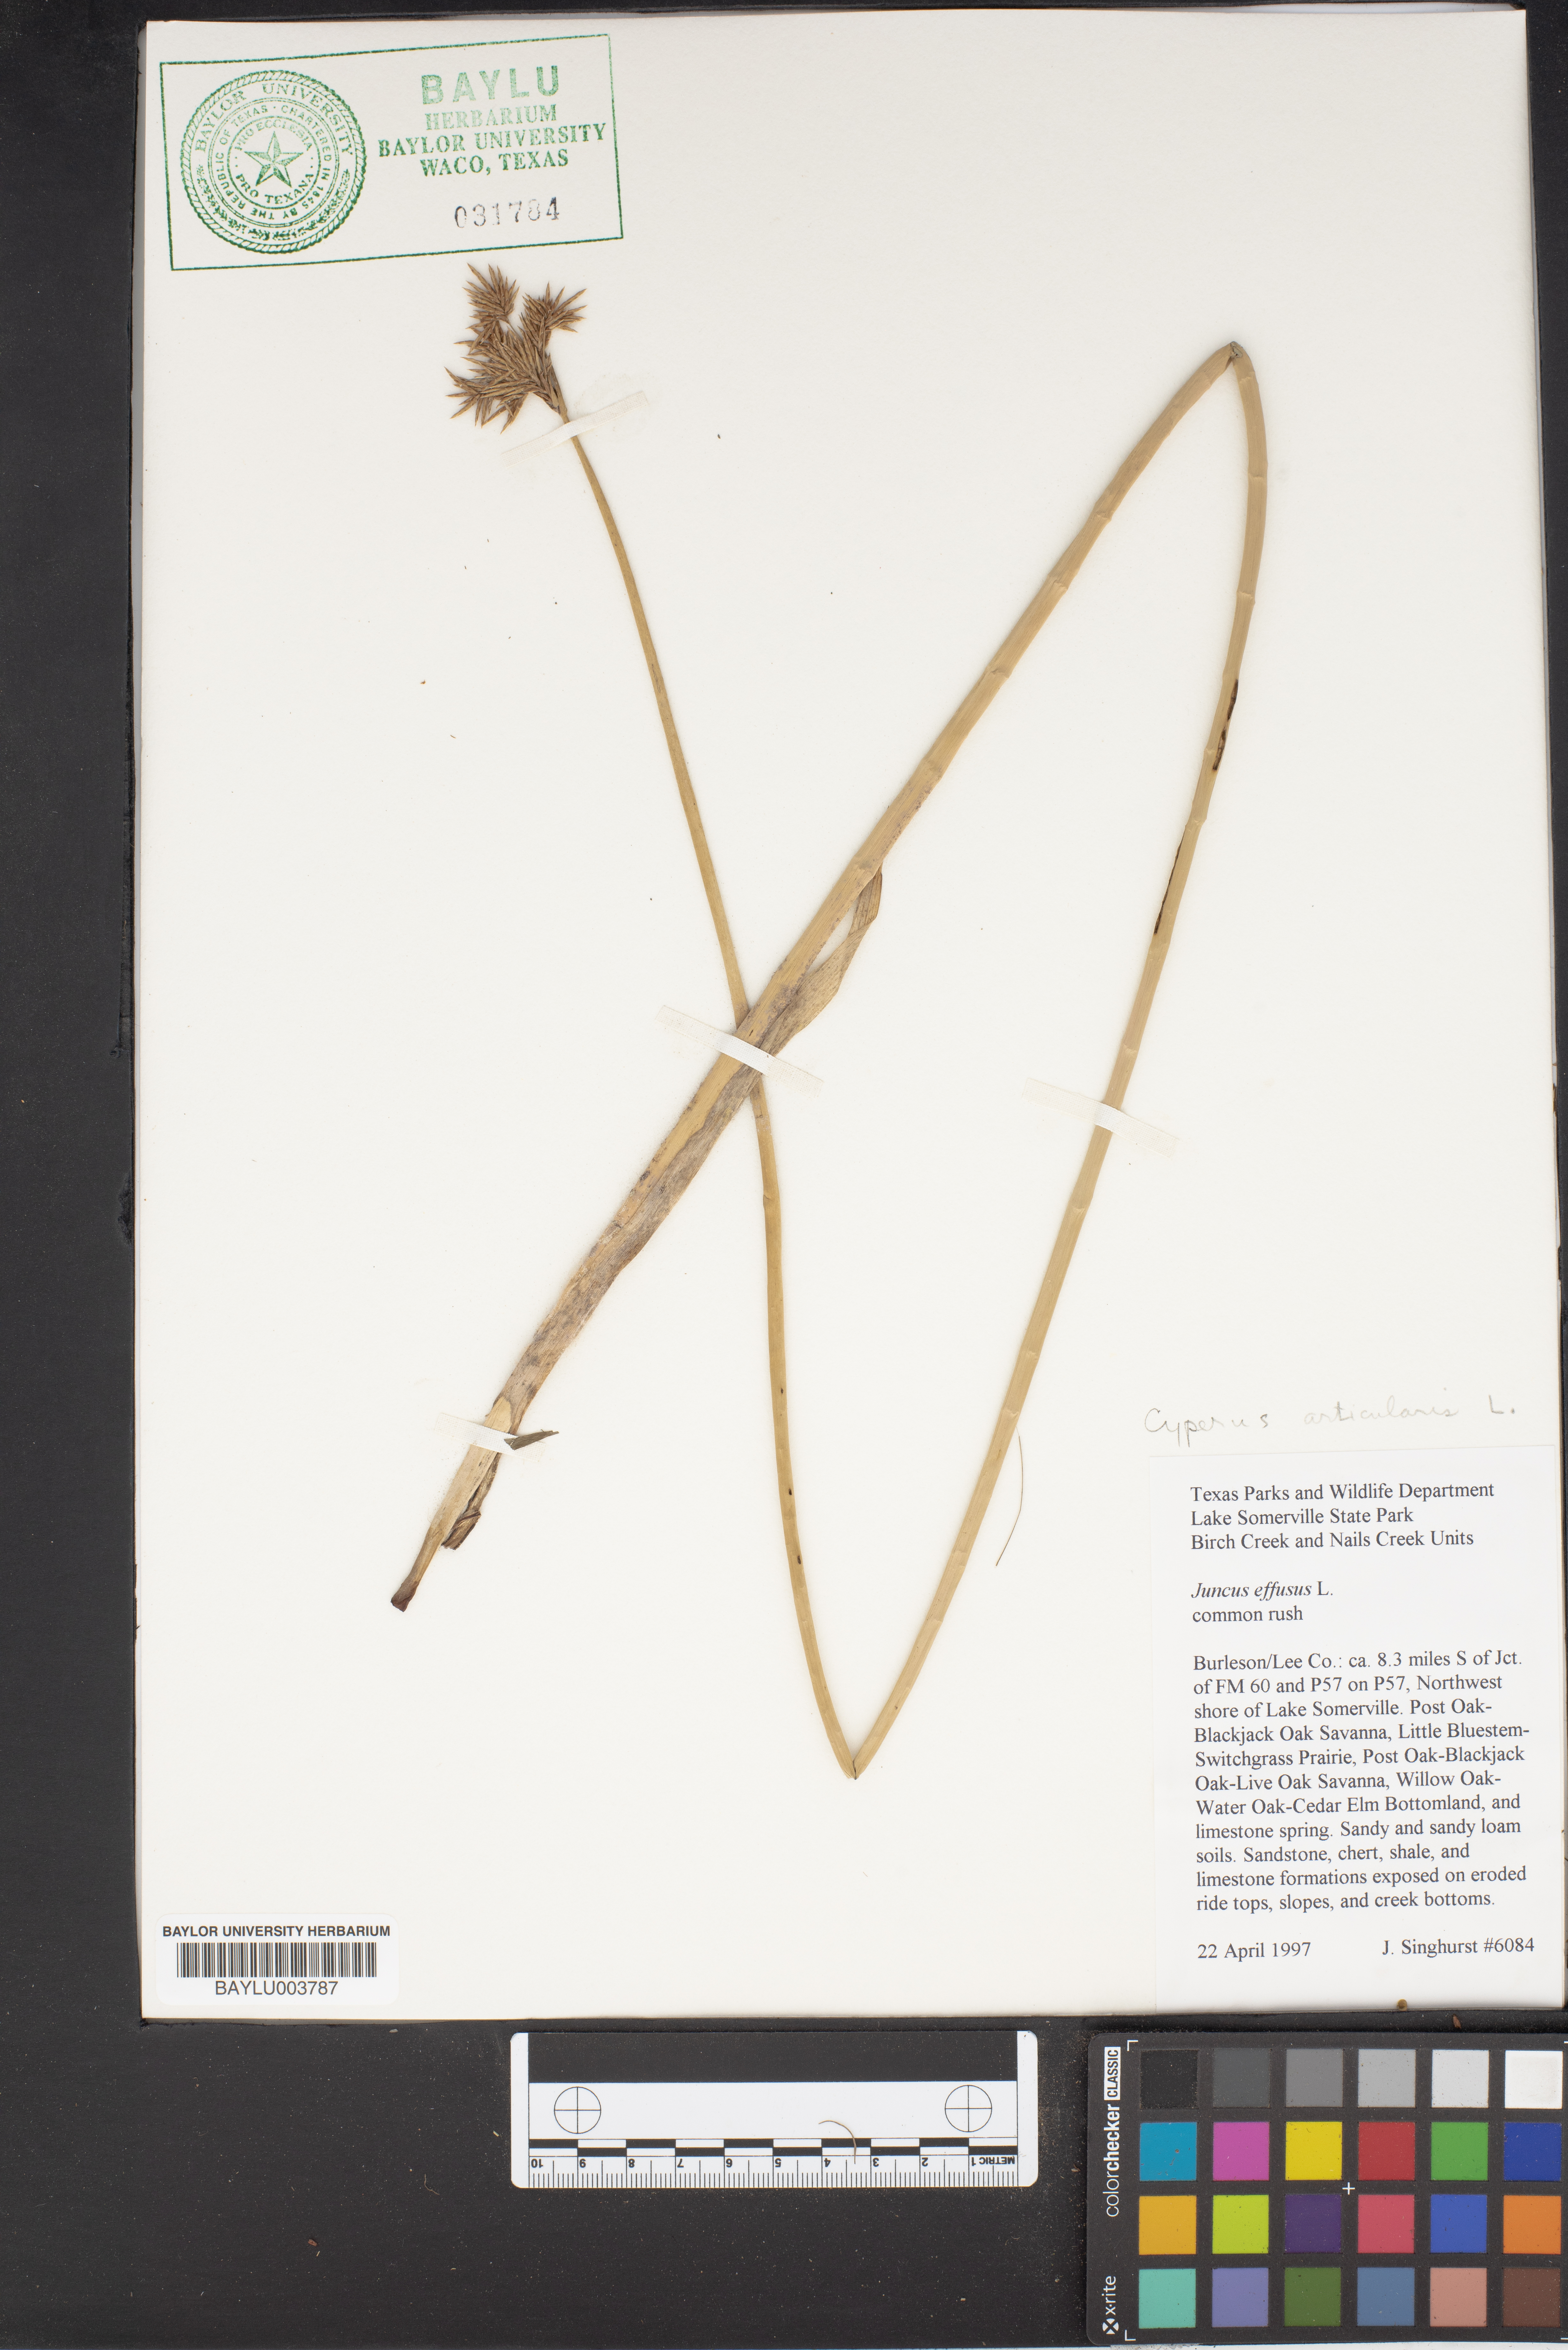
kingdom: Plantae
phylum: Tracheophyta
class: Liliopsida
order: Poales
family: Juncaceae
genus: Juncus
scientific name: Juncus effusus
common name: Soft rush
